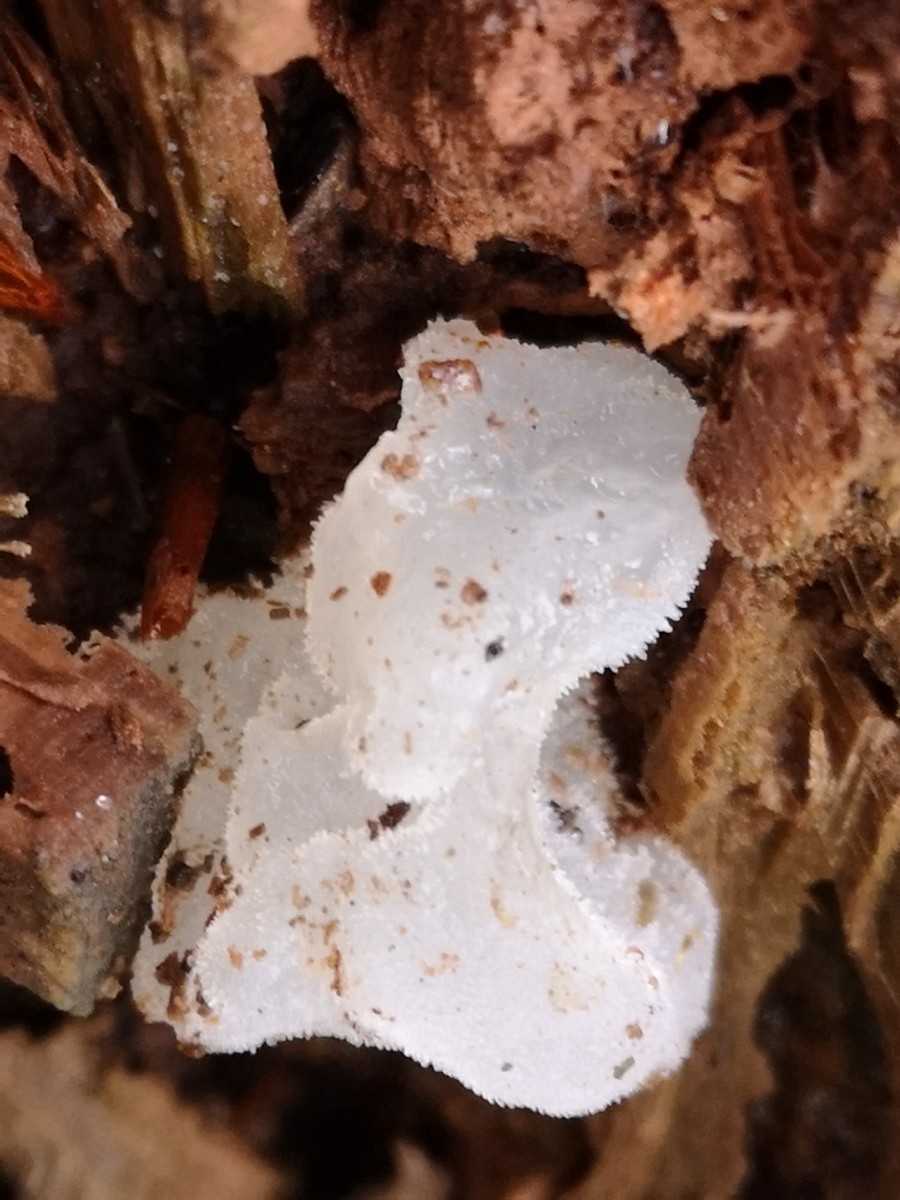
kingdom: Fungi
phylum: Basidiomycota
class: Agaricomycetes
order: Auriculariales
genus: Pseudohydnum
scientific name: Pseudohydnum gelatinosum
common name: bævretand
